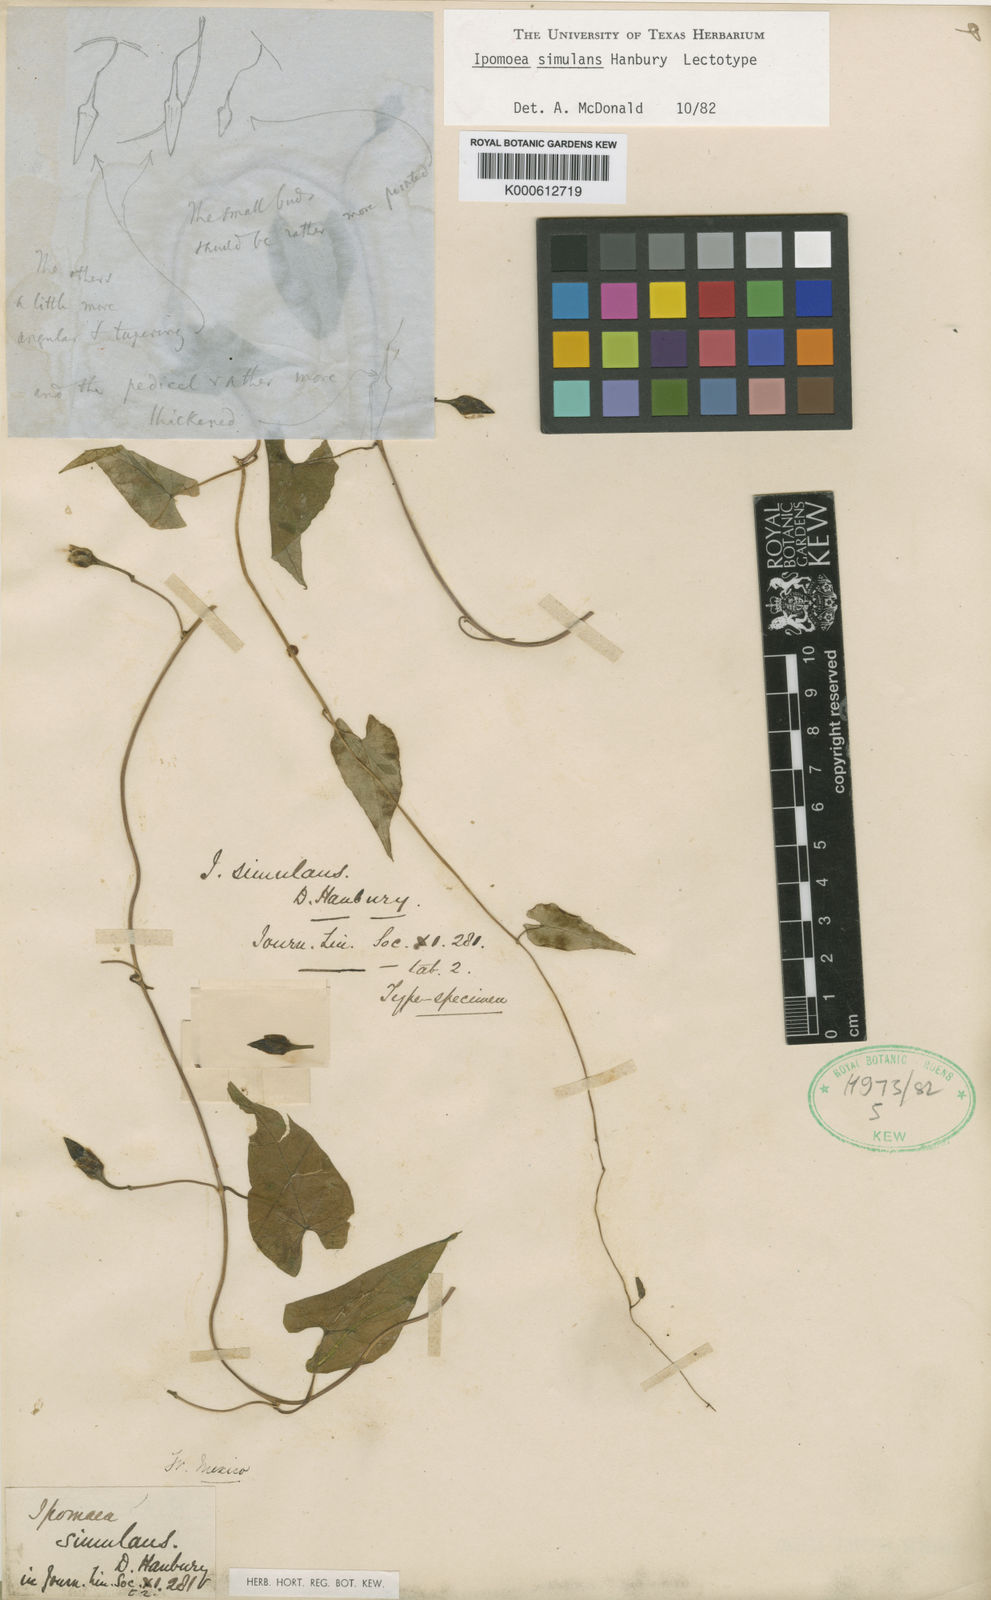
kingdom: Plantae
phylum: Tracheophyta
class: Magnoliopsida
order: Solanales
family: Convolvulaceae
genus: Ipomoea
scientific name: Ipomoea simulans
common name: Tampico jalap
